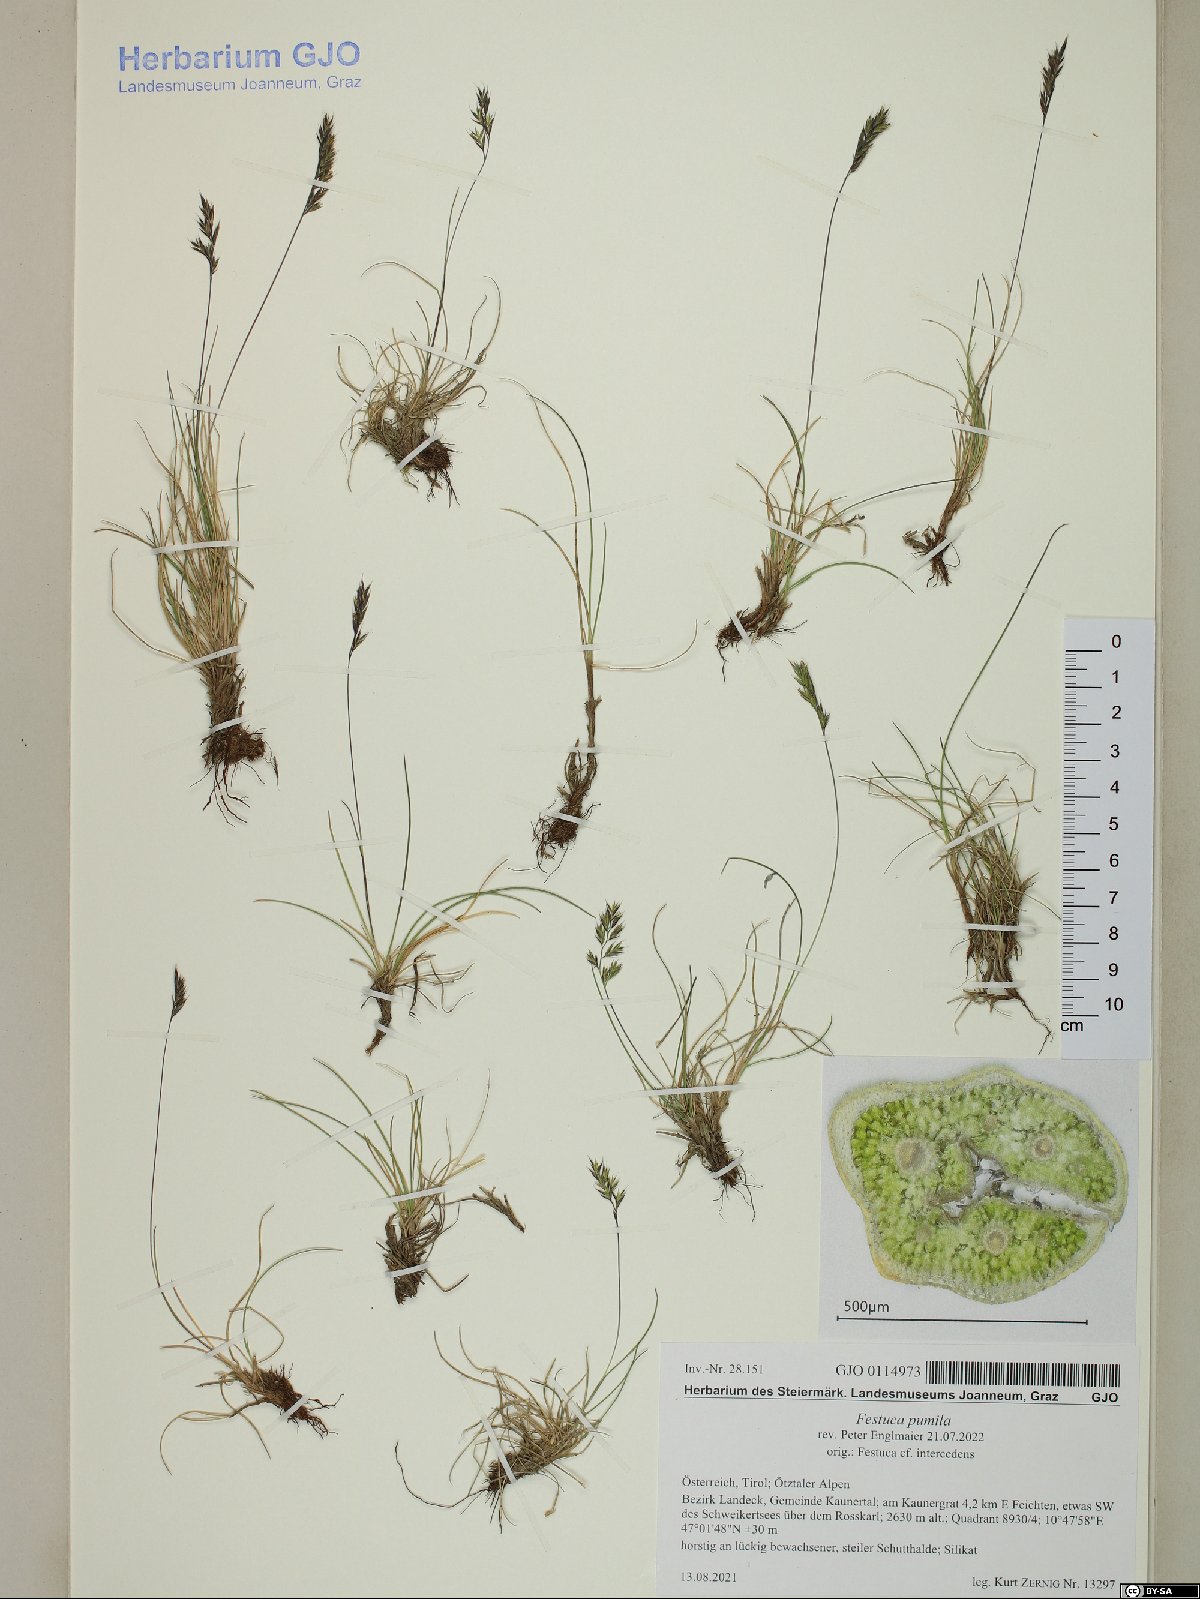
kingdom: Plantae
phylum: Tracheophyta
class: Liliopsida
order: Poales
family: Poaceae
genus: Festuca
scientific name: Festuca quadriflora
